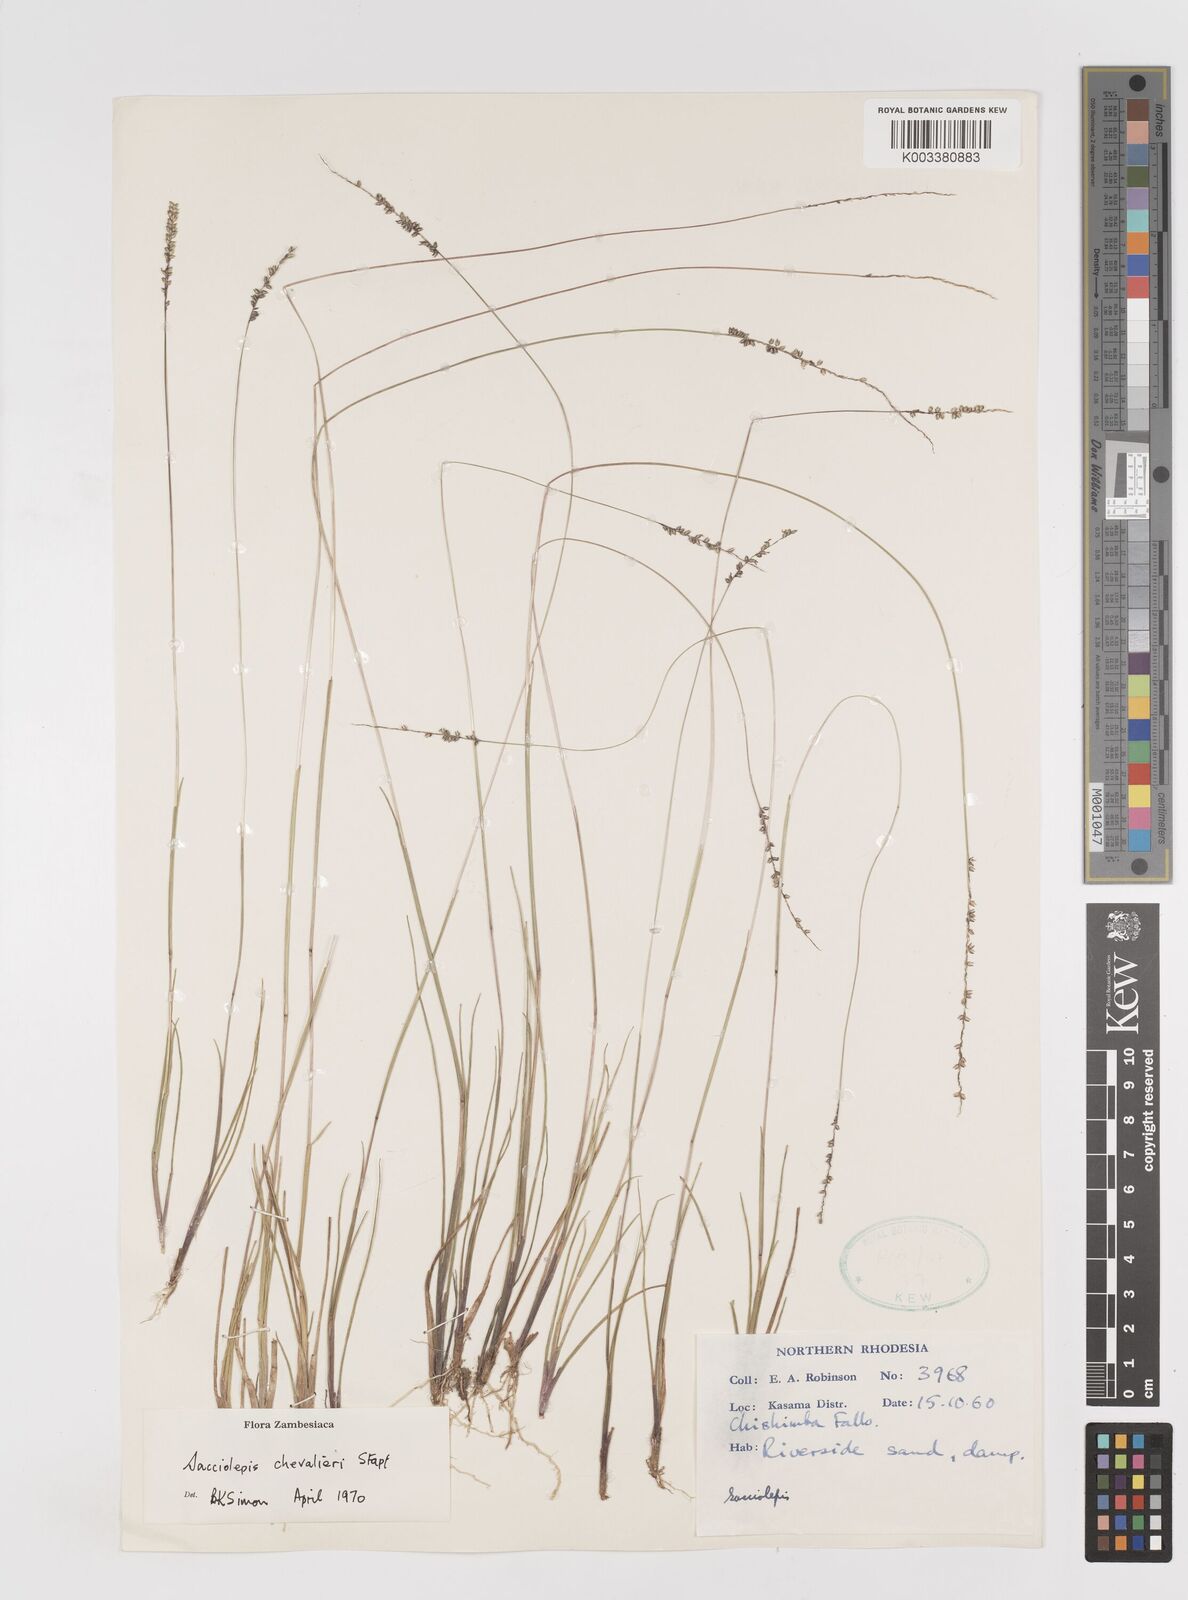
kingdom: Plantae
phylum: Tracheophyta
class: Liliopsida
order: Poales
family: Poaceae
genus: Sacciolepis
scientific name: Sacciolepis chevalieri
